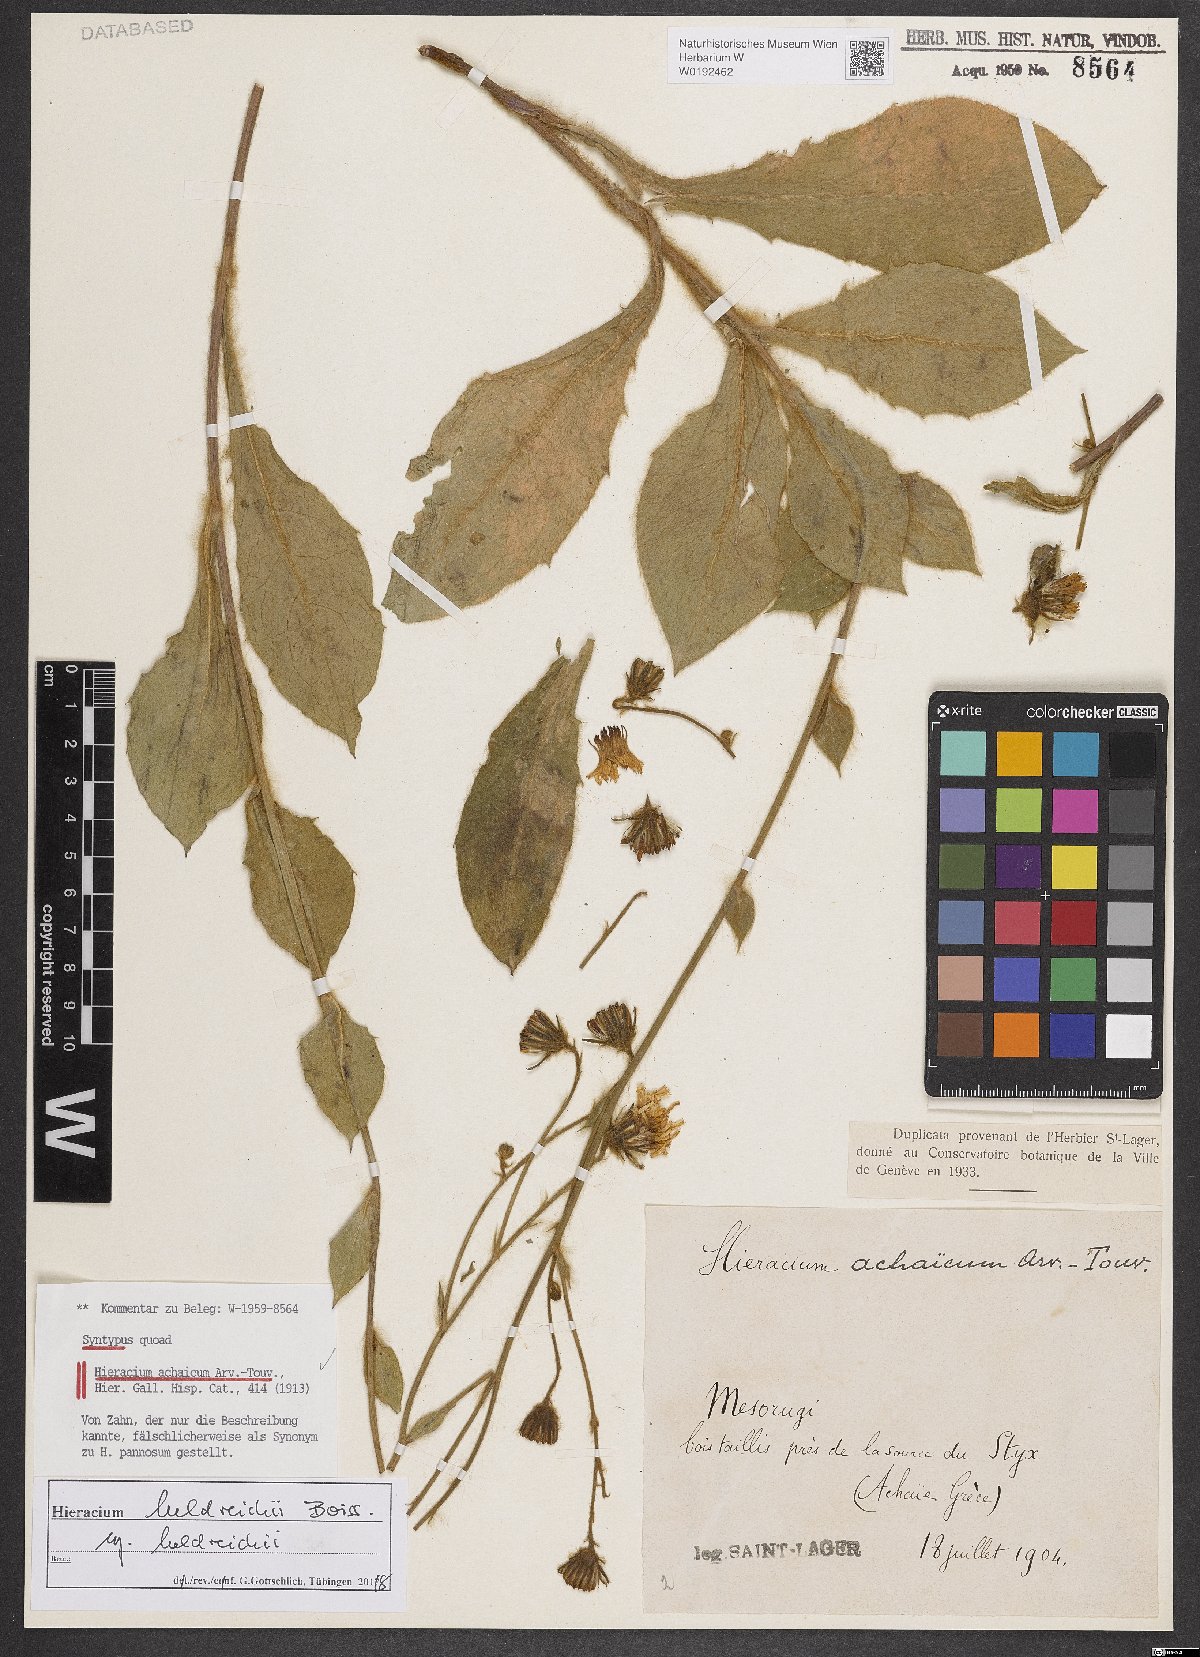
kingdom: Plantae
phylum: Tracheophyta
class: Magnoliopsida
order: Asterales
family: Asteraceae
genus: Hieracium
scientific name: Hieracium achaicum
